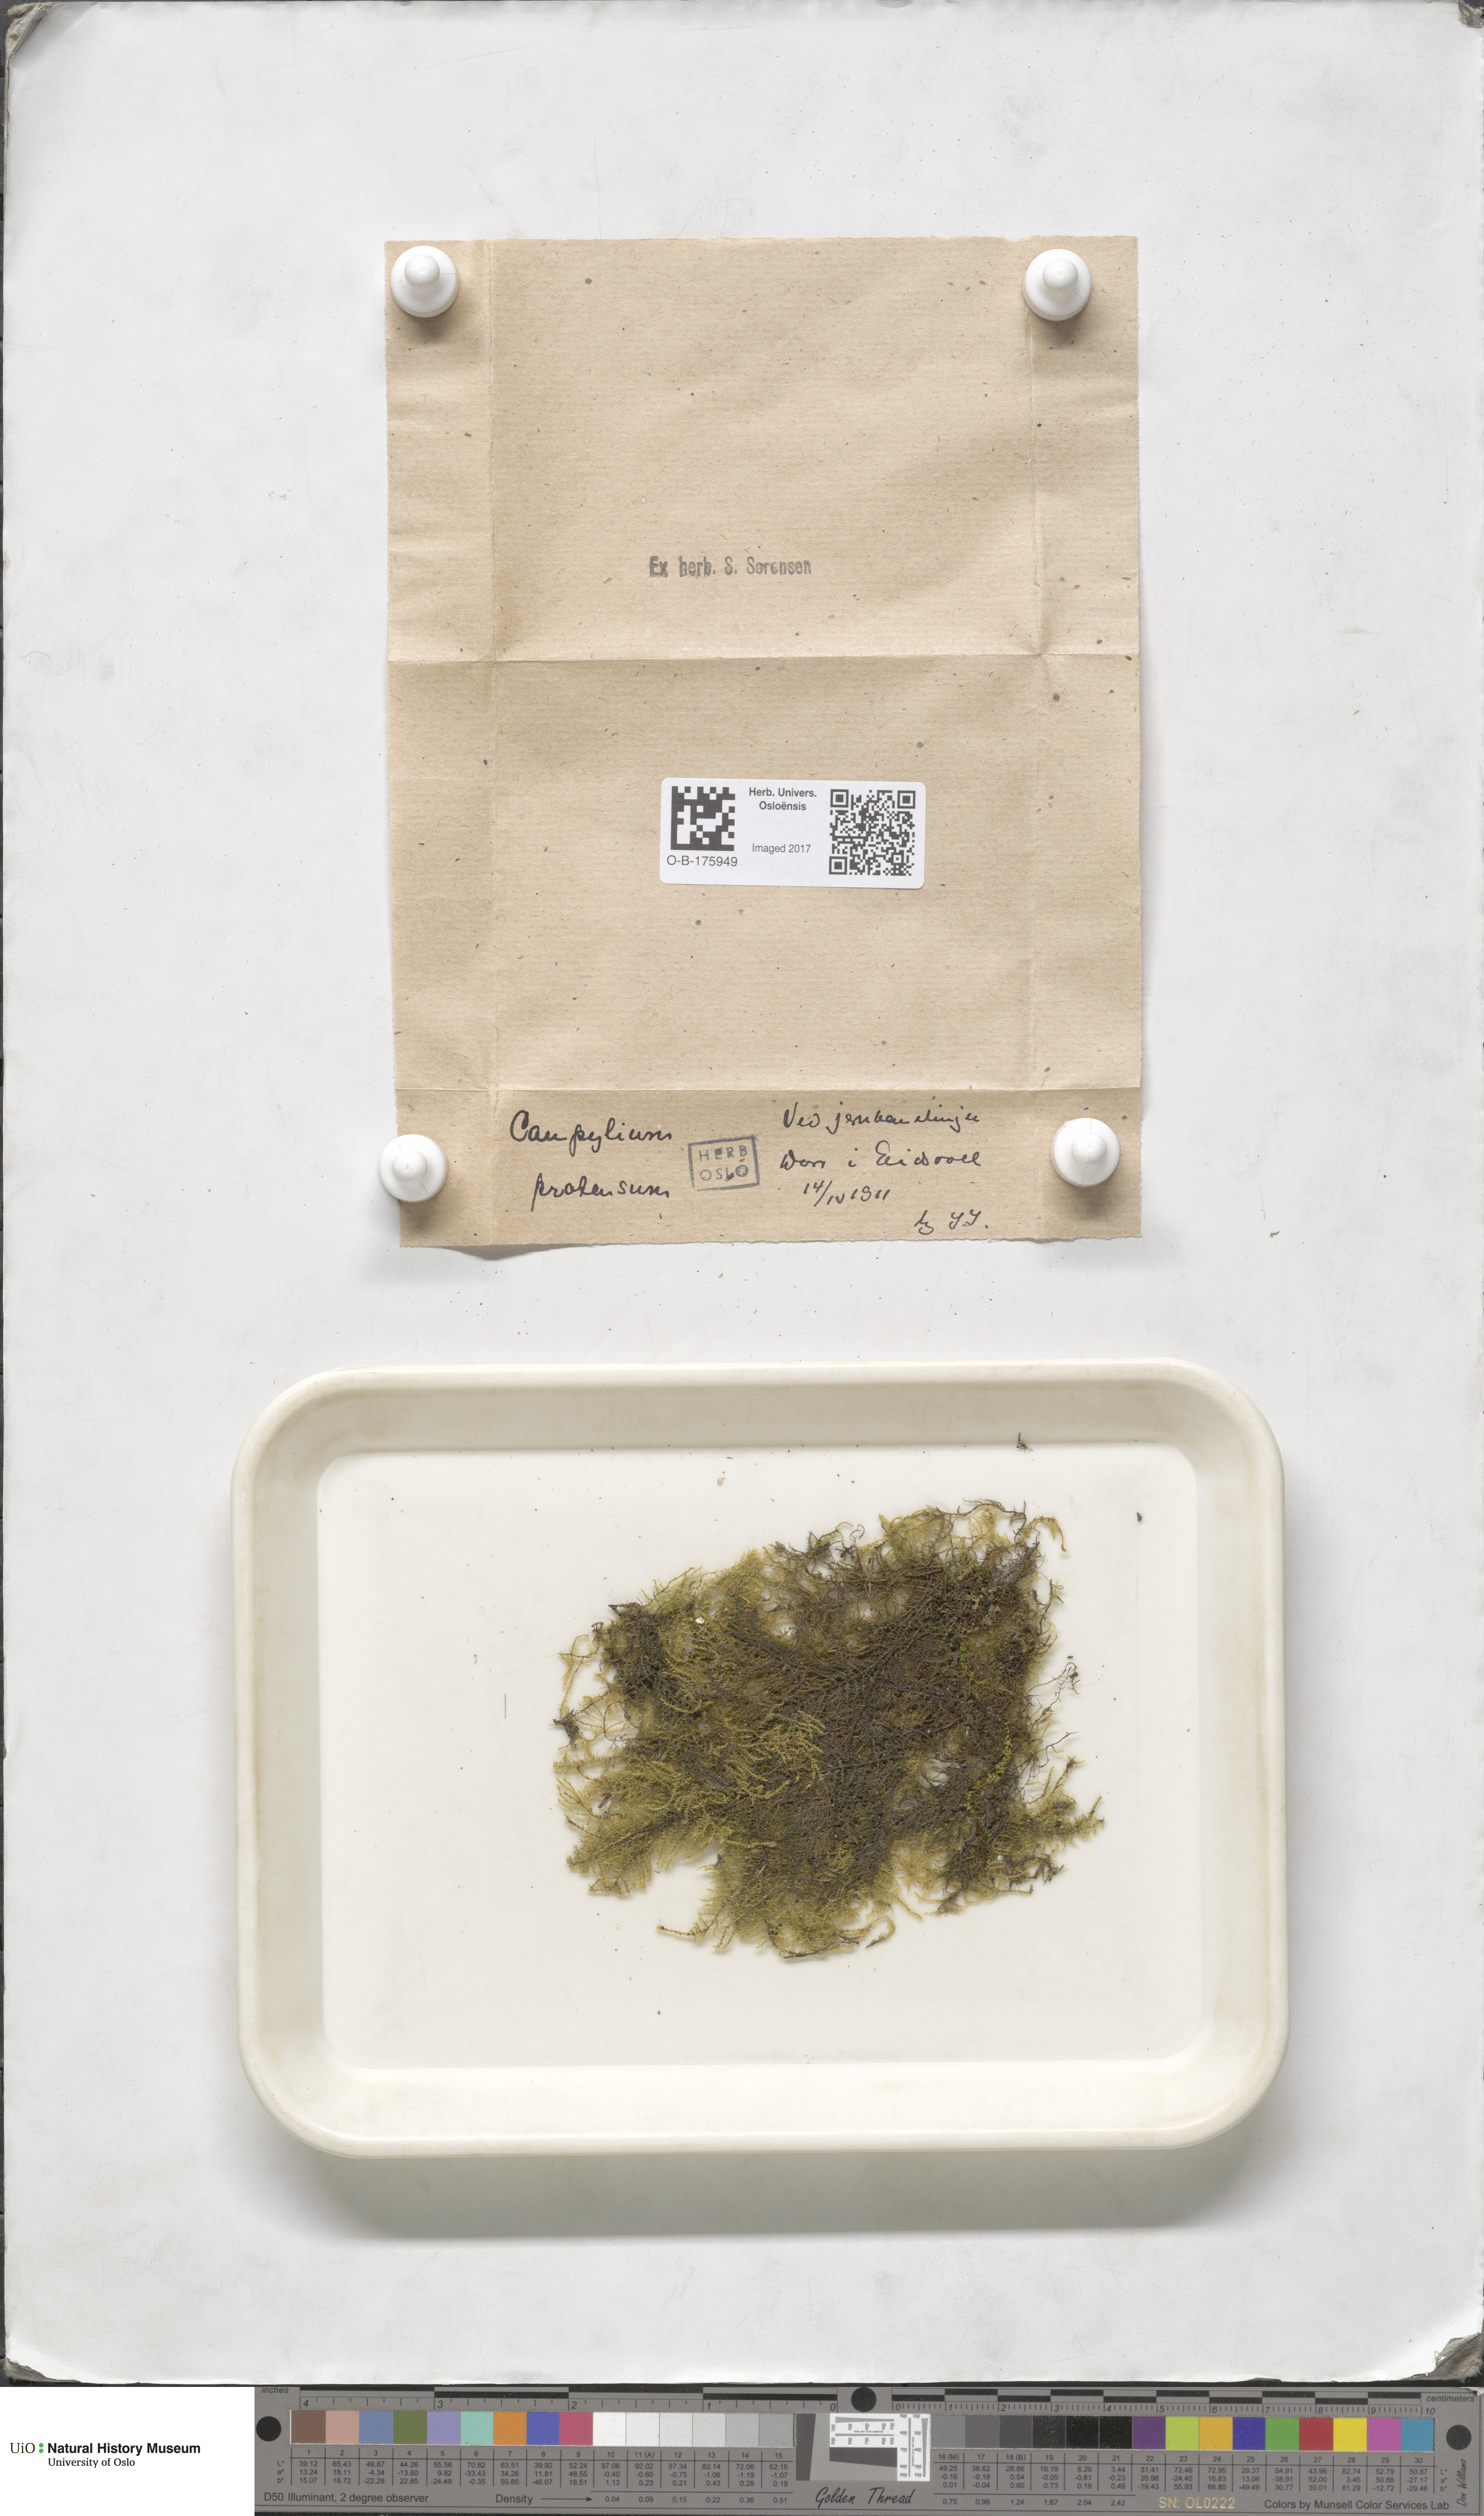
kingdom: Plantae
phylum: Bryophyta
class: Bryopsida
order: Hypnales
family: Amblystegiaceae
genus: Campylium
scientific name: Campylium stellatum
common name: Yellow starry fen moss
